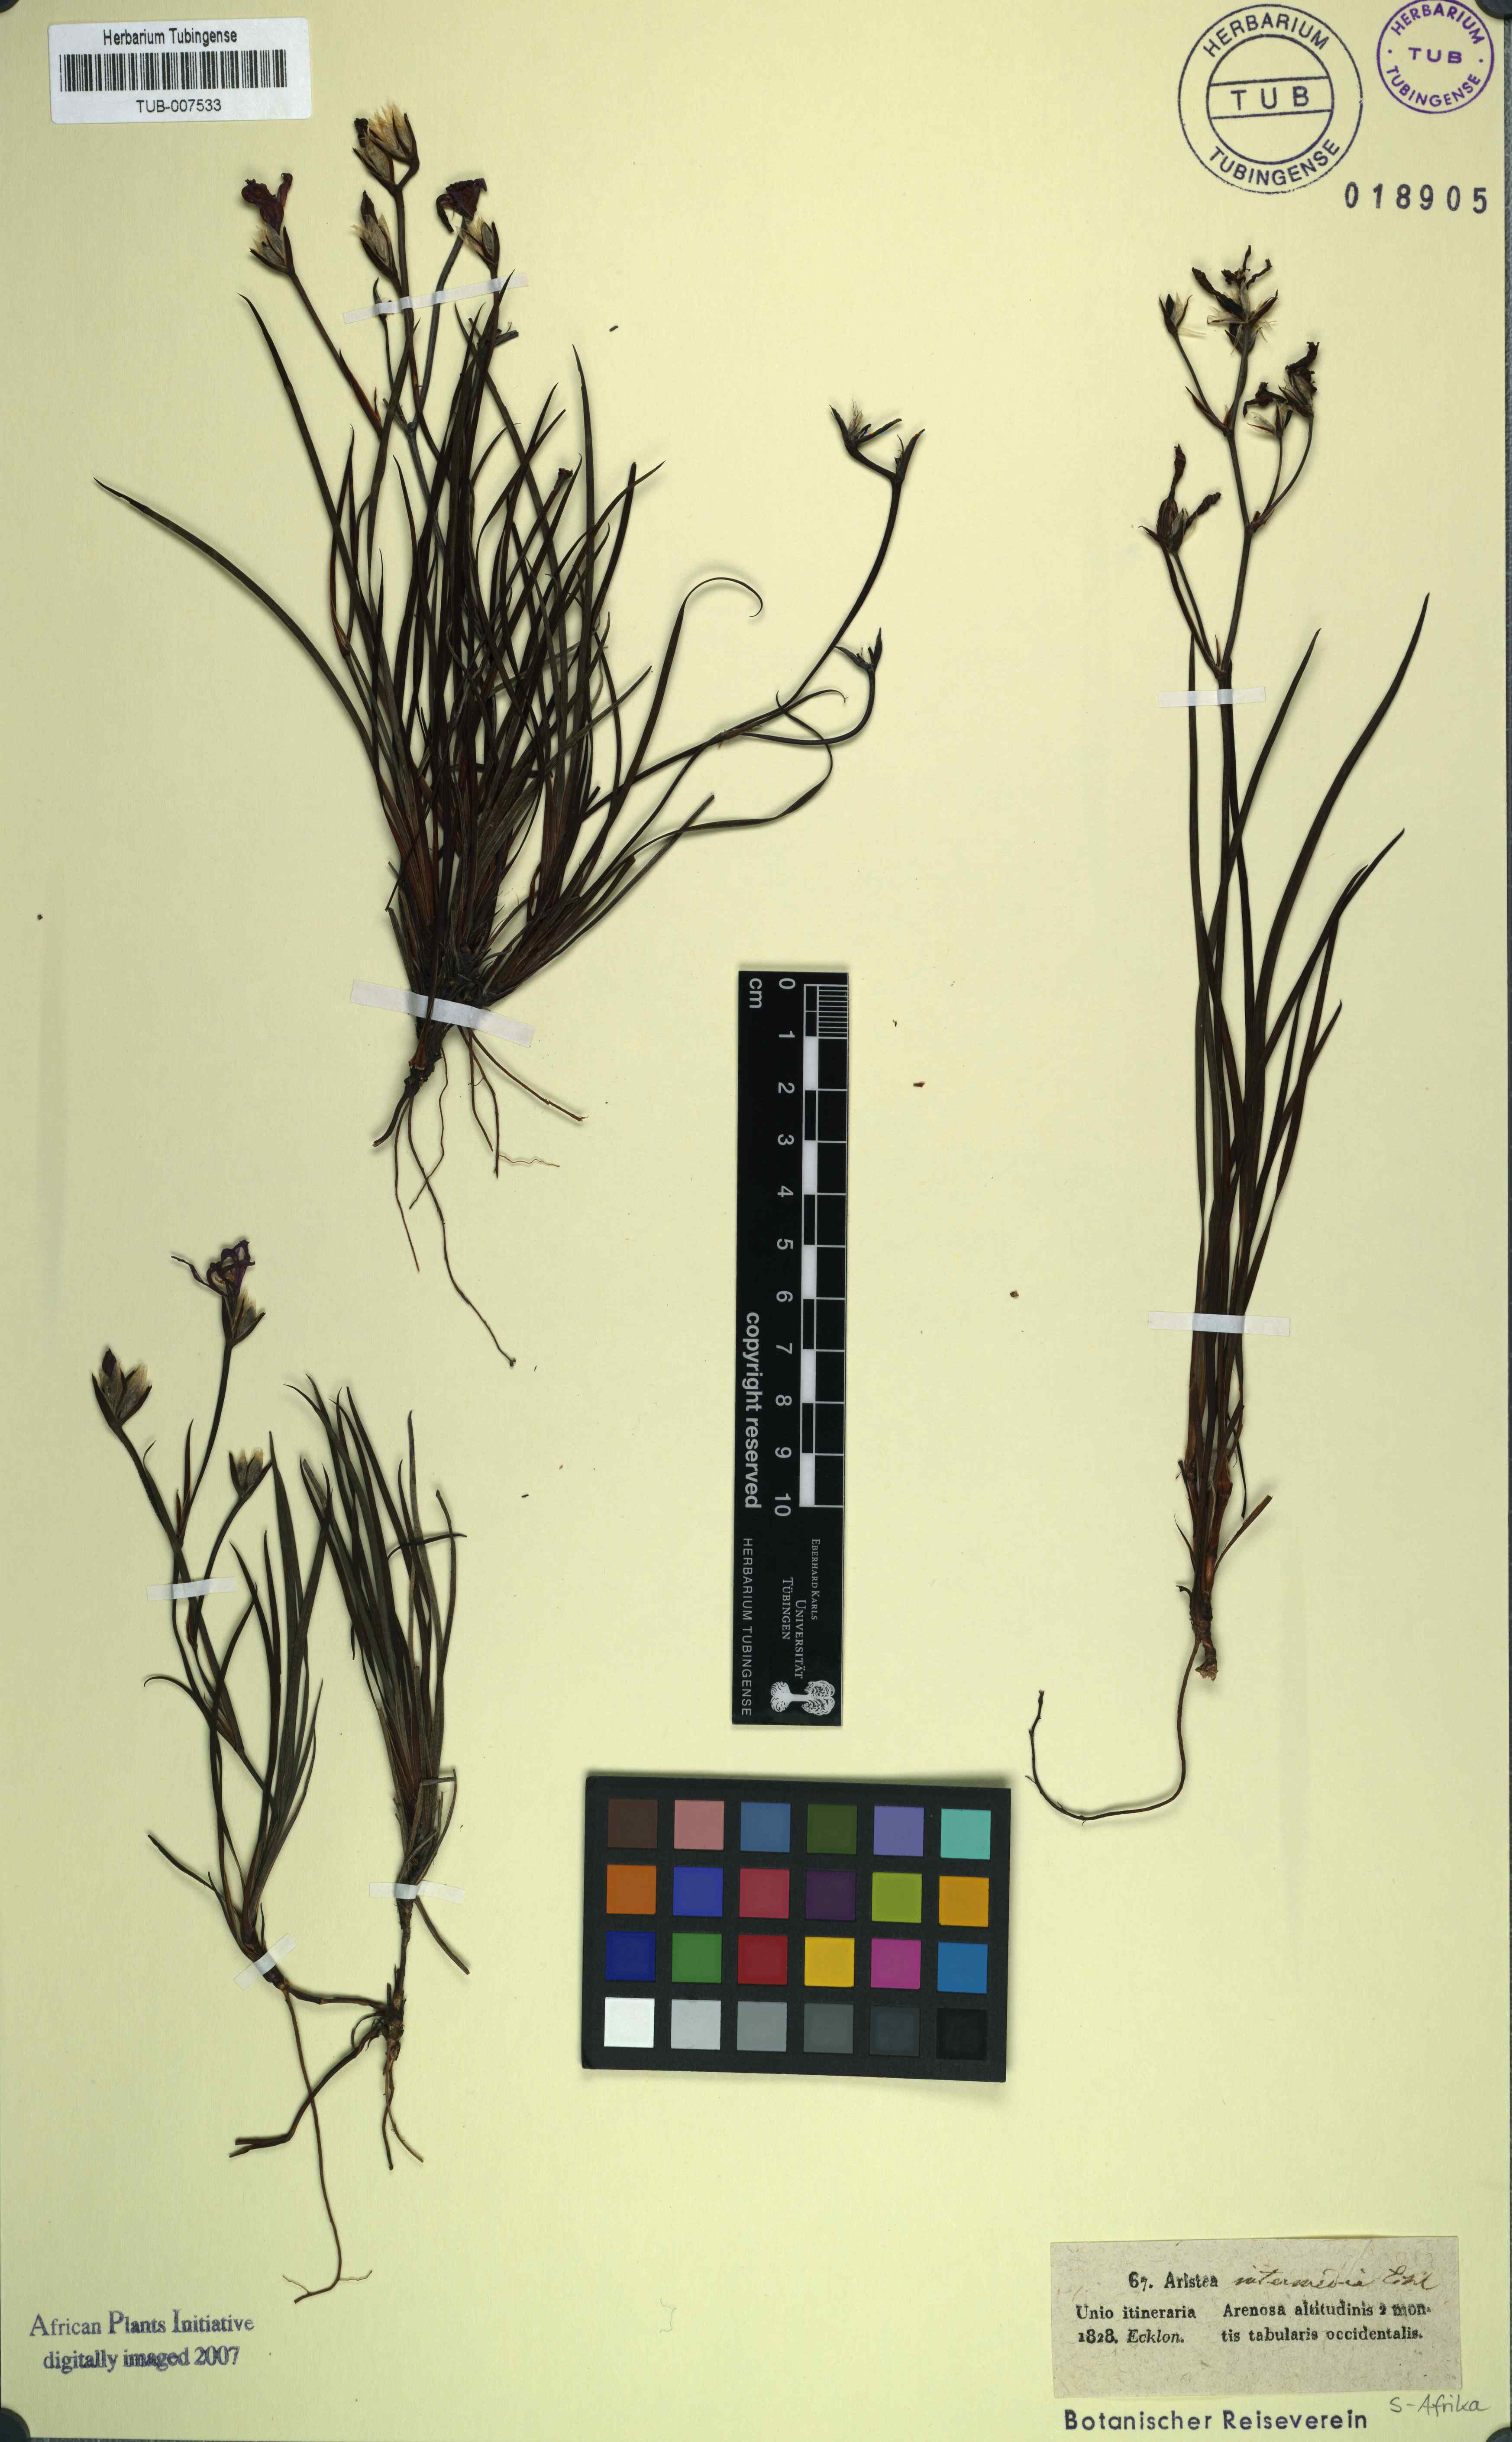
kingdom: Plantae
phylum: Tracheophyta
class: Liliopsida
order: Asparagales
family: Iridaceae
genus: Aristea
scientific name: Aristea dichotoma
